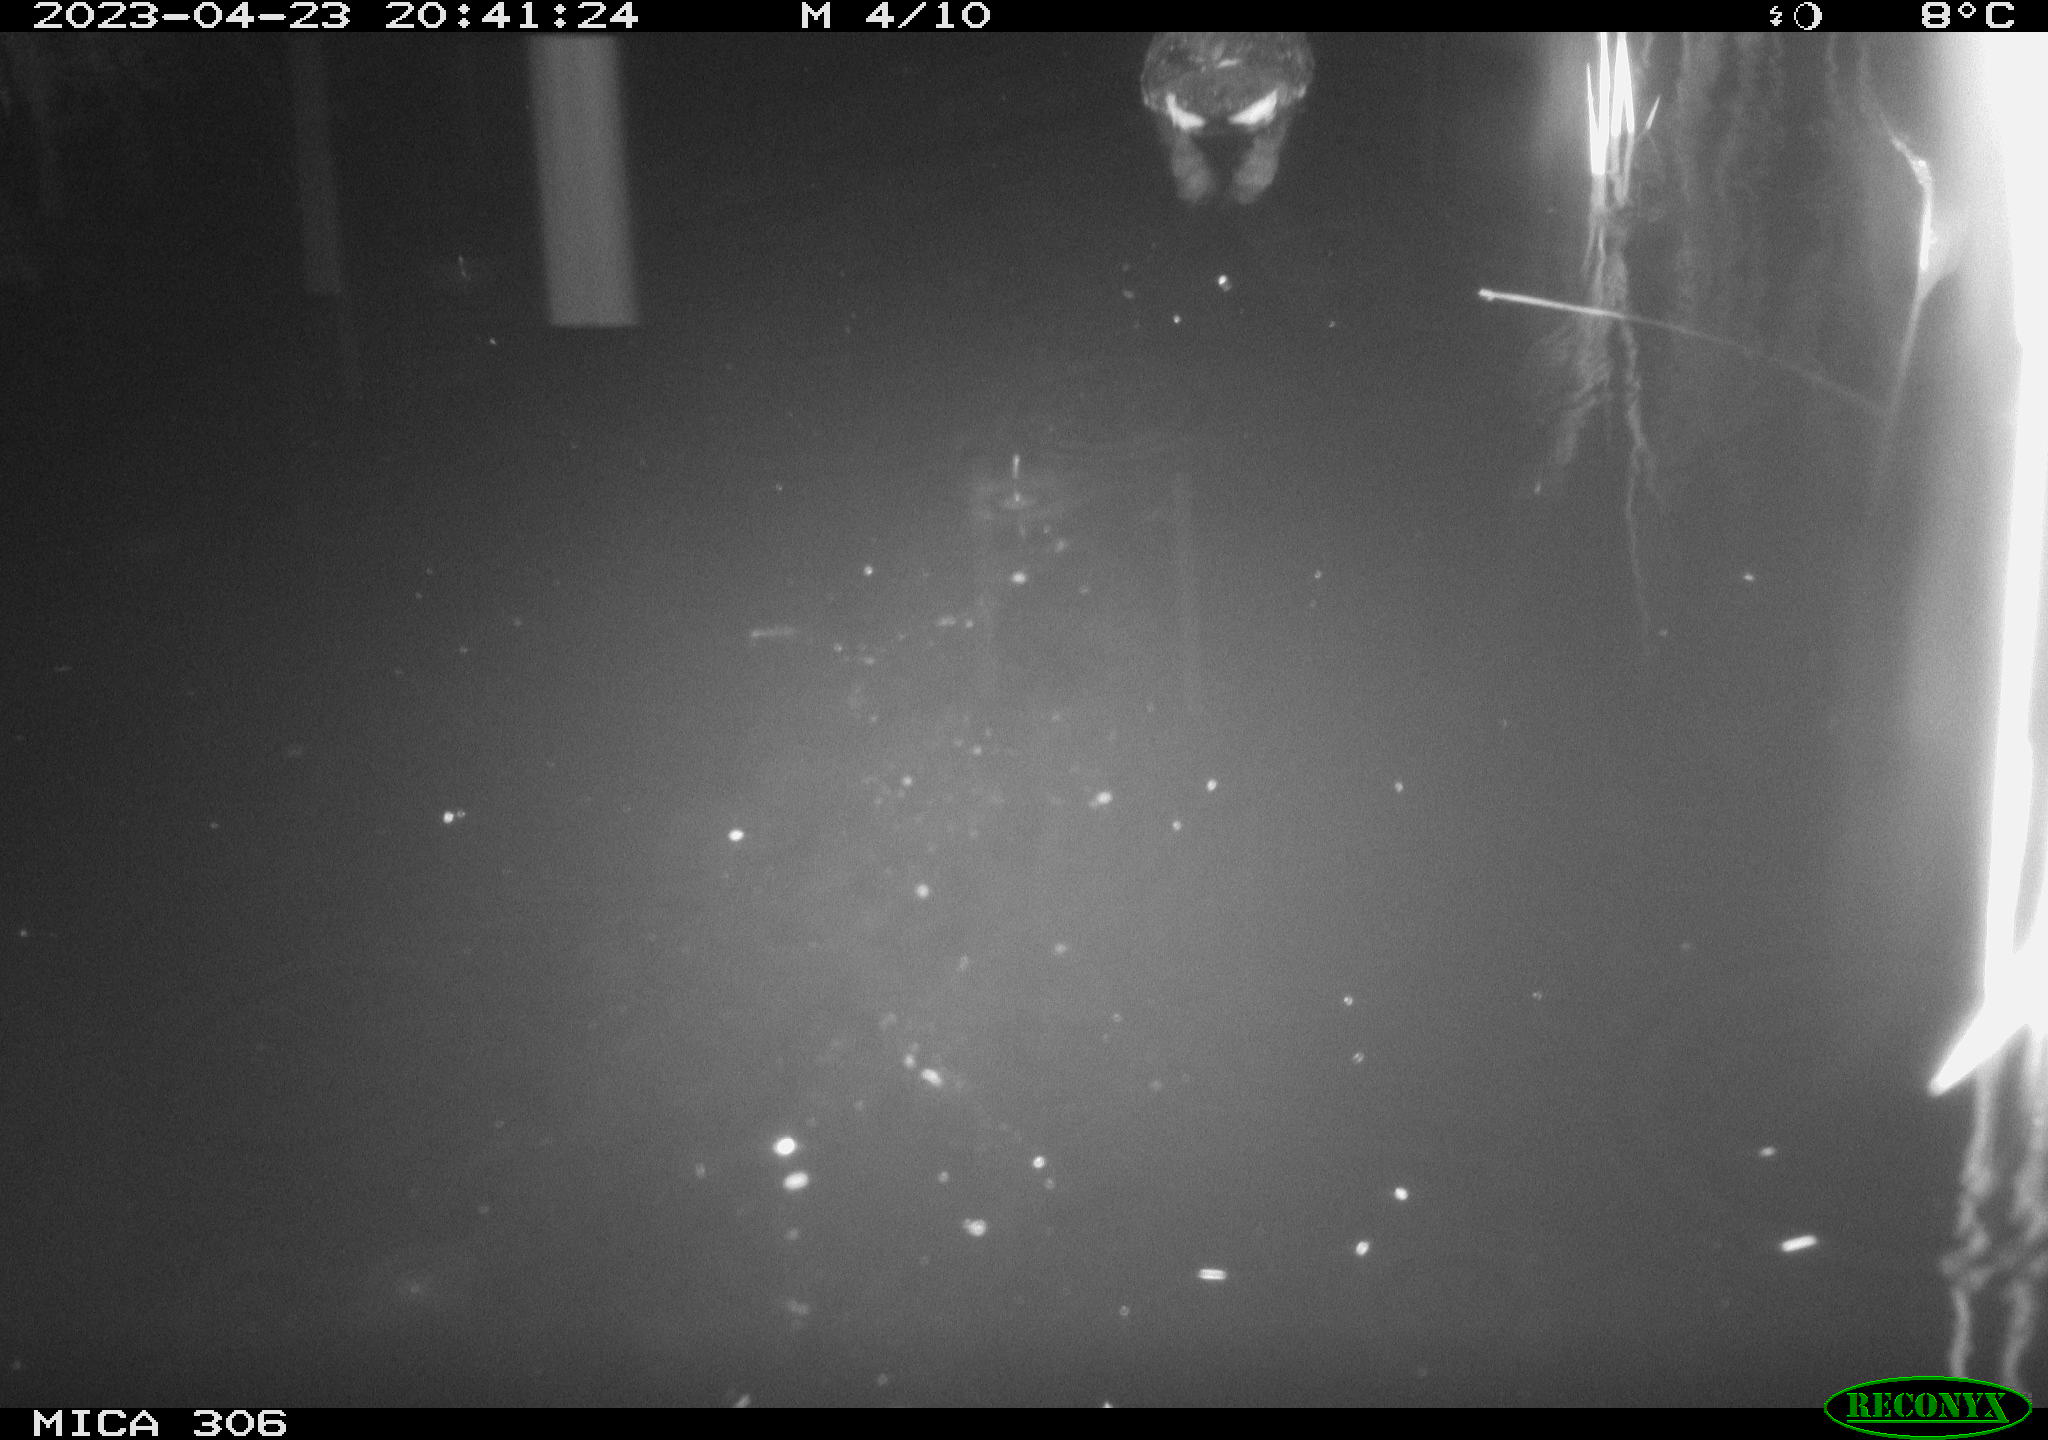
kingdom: Animalia
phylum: Chordata
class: Aves
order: Gruiformes
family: Rallidae
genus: Fulica
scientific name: Fulica atra
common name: Eurasian coot
